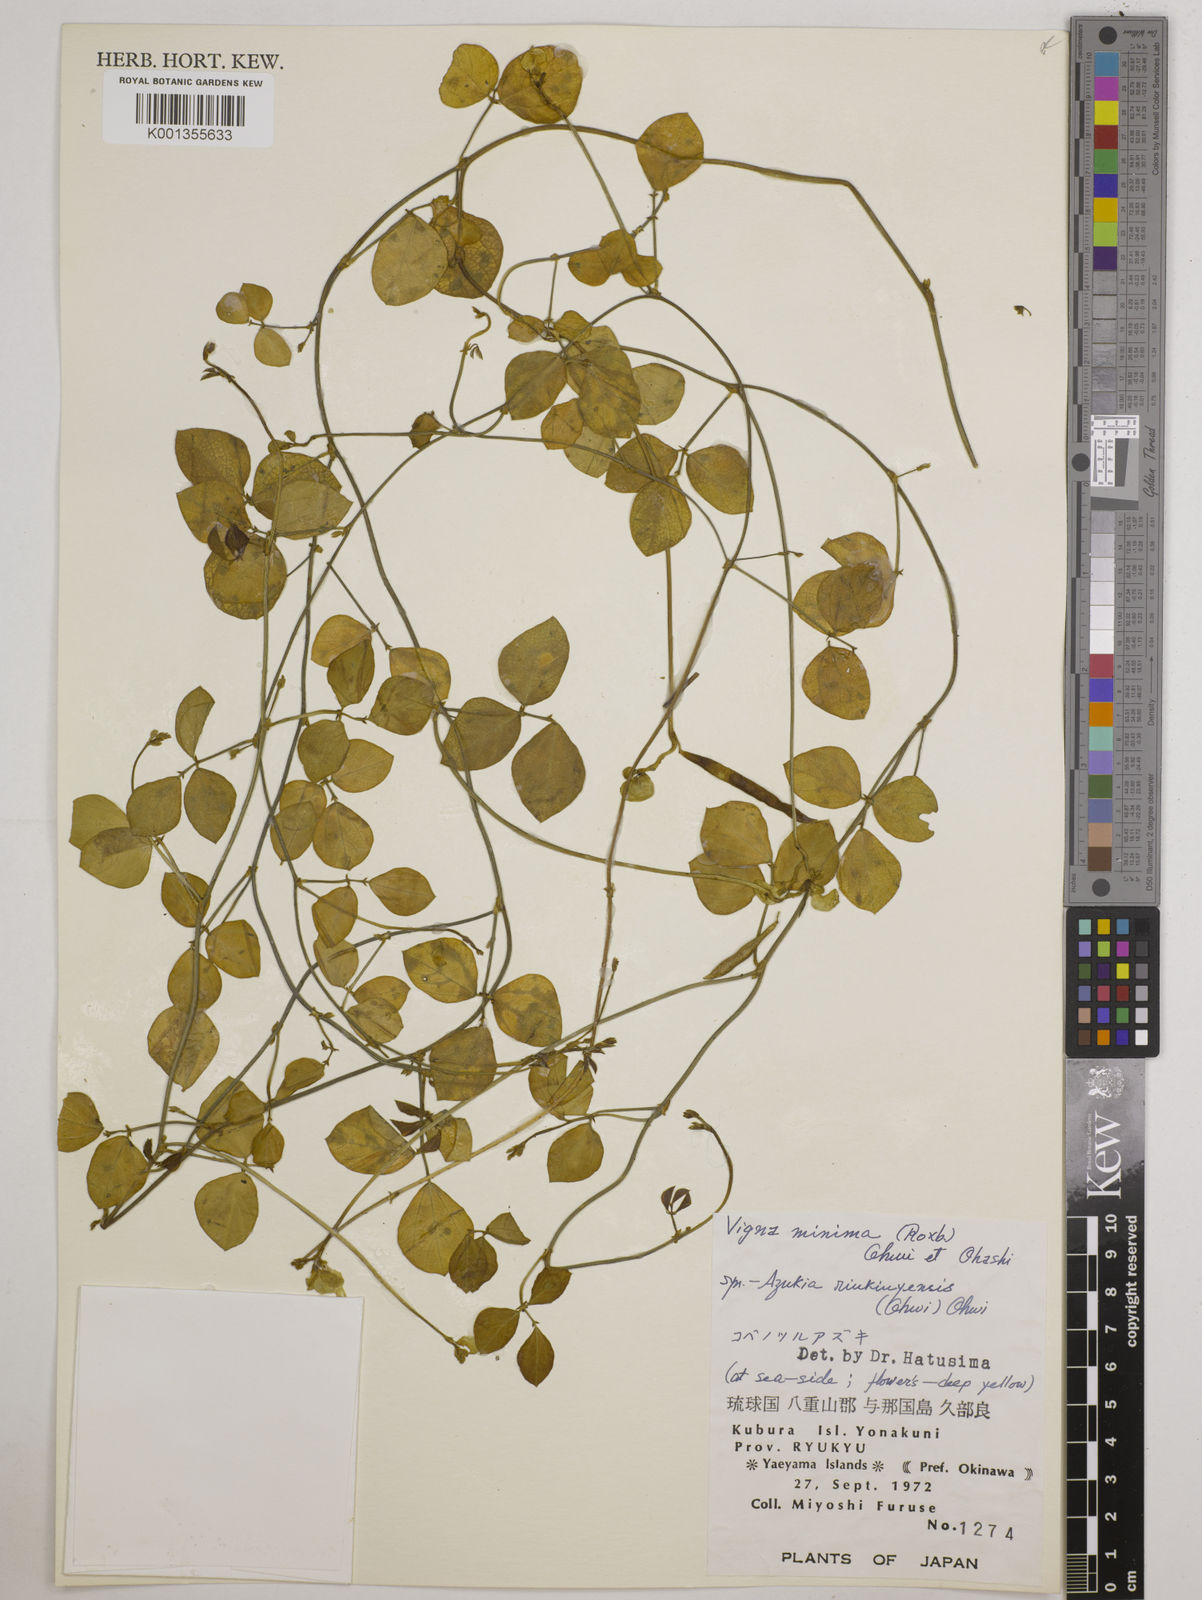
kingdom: Plantae
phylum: Tracheophyta
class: Magnoliopsida
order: Fabales
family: Fabaceae
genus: Vigna
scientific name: Vigna minima
